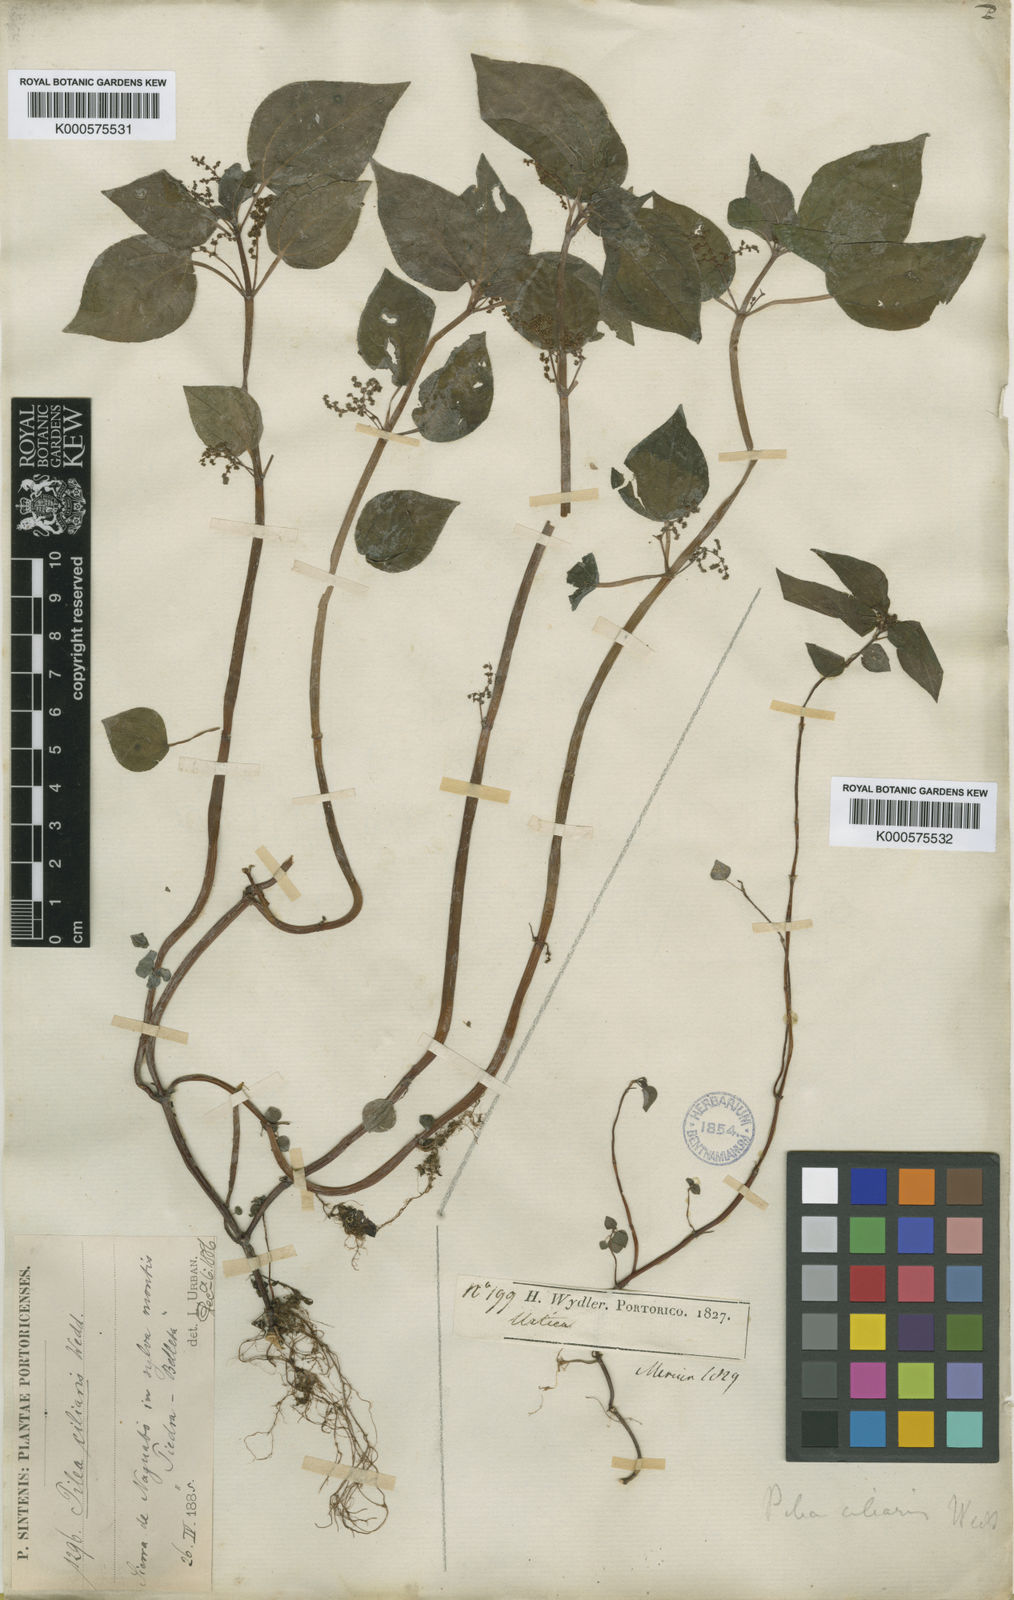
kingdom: Plantae
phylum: Tracheophyta
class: Magnoliopsida
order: Rosales
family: Urticaceae
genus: Pilea
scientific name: Pilea parietaria
